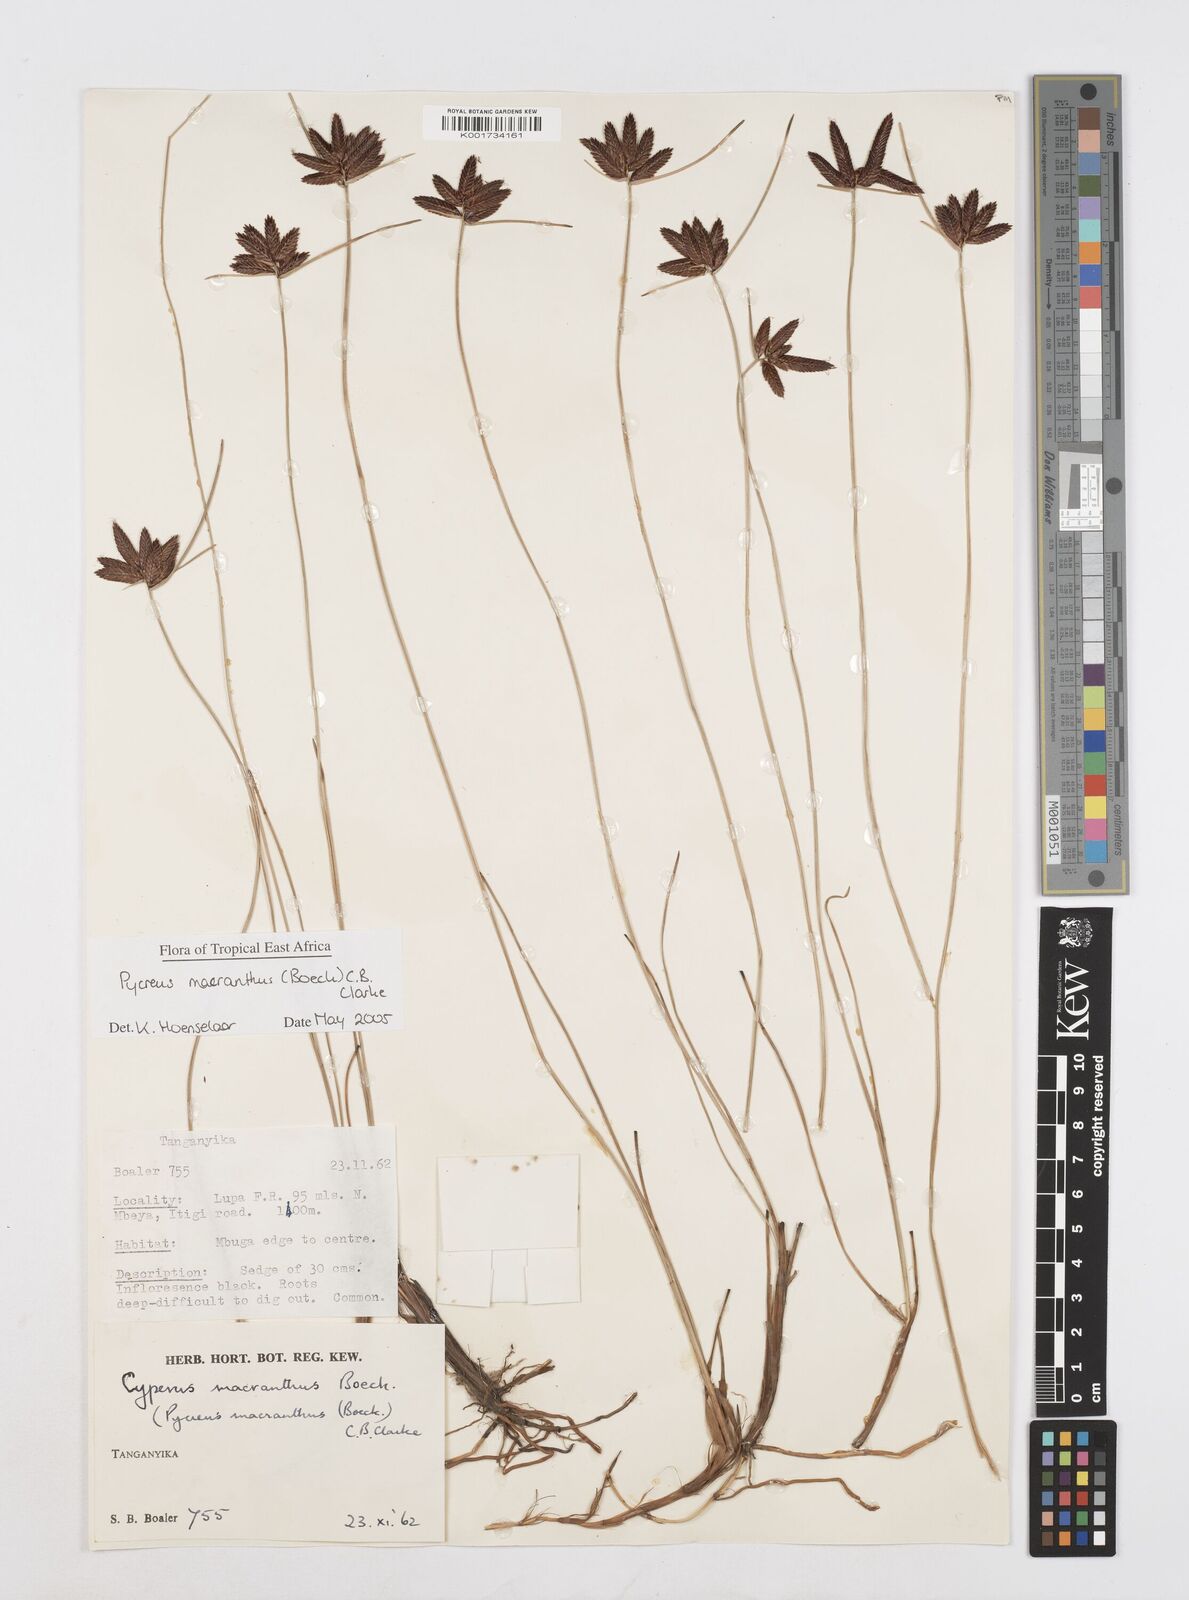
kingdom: Plantae
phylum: Tracheophyta
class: Liliopsida
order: Poales
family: Cyperaceae
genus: Cyperus
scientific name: Cyperus nigricans
